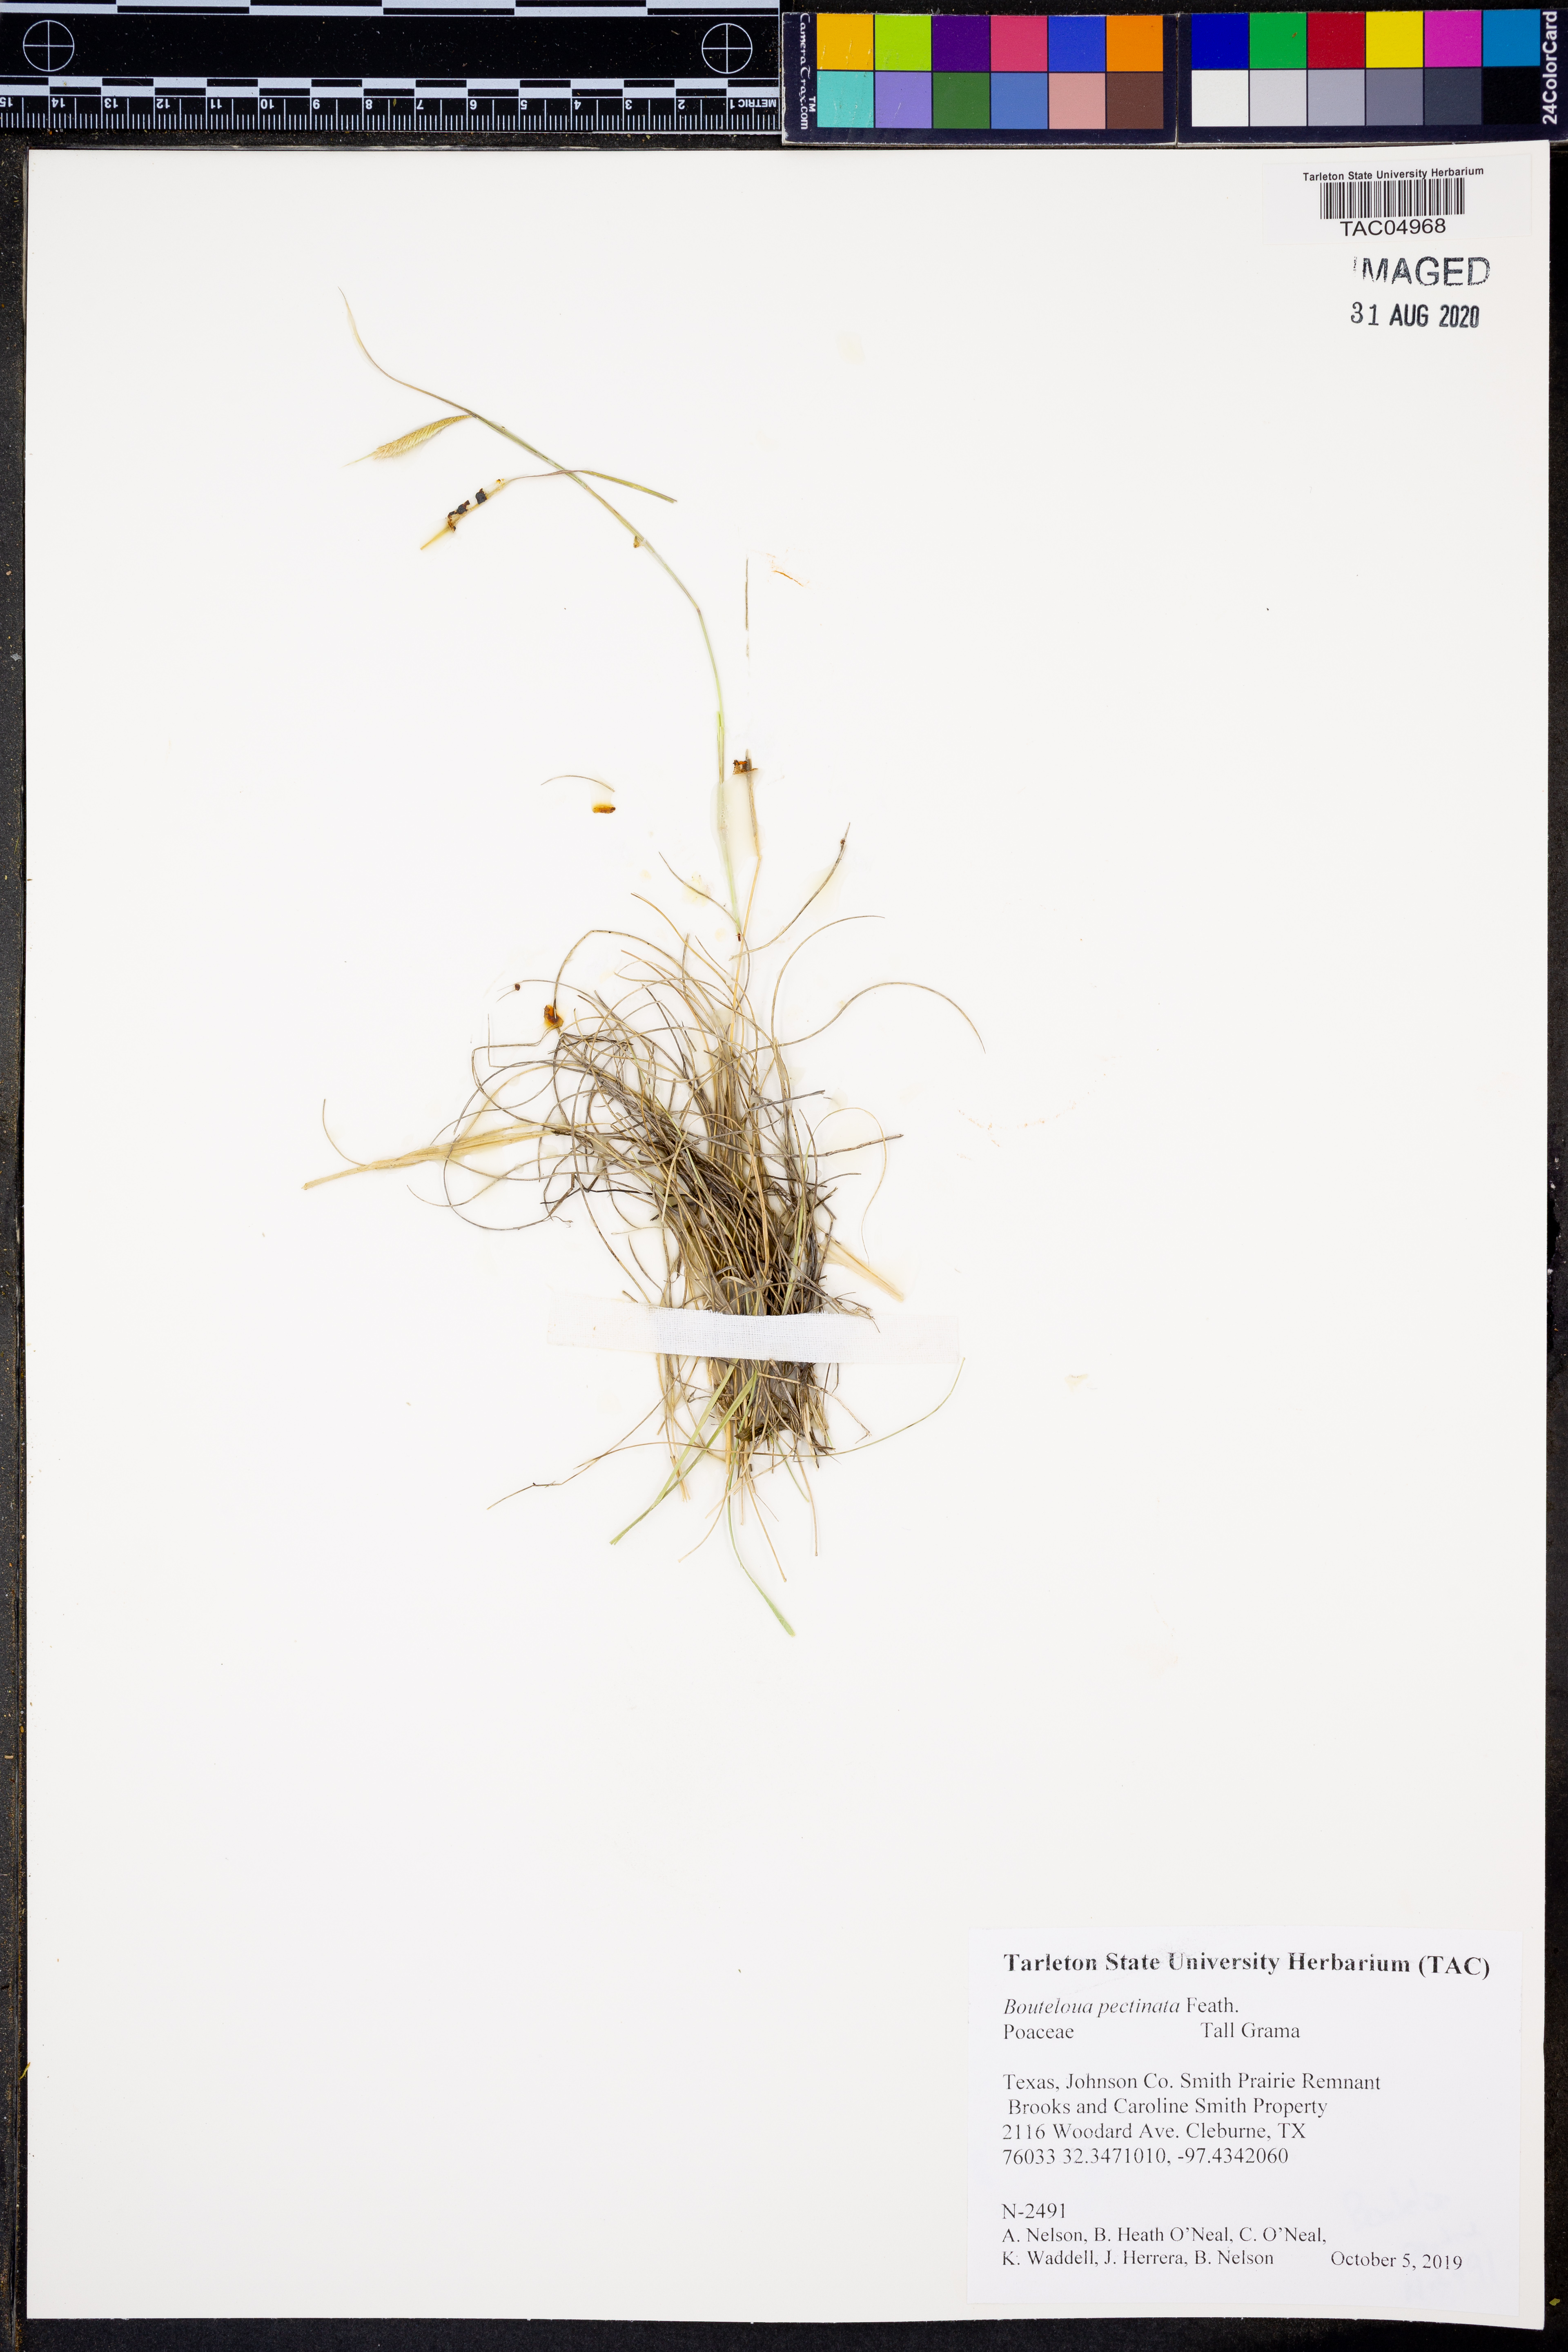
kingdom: Plantae
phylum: Tracheophyta
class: Liliopsida
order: Poales
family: Poaceae
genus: Bouteloua
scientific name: Bouteloua pectinata
